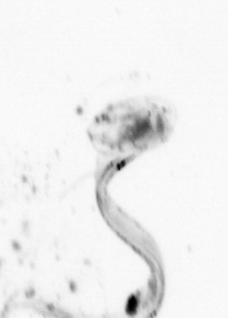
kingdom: Animalia
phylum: Chordata
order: Copelata
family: Fritillariidae
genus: Appendicularia
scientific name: Appendicularia
